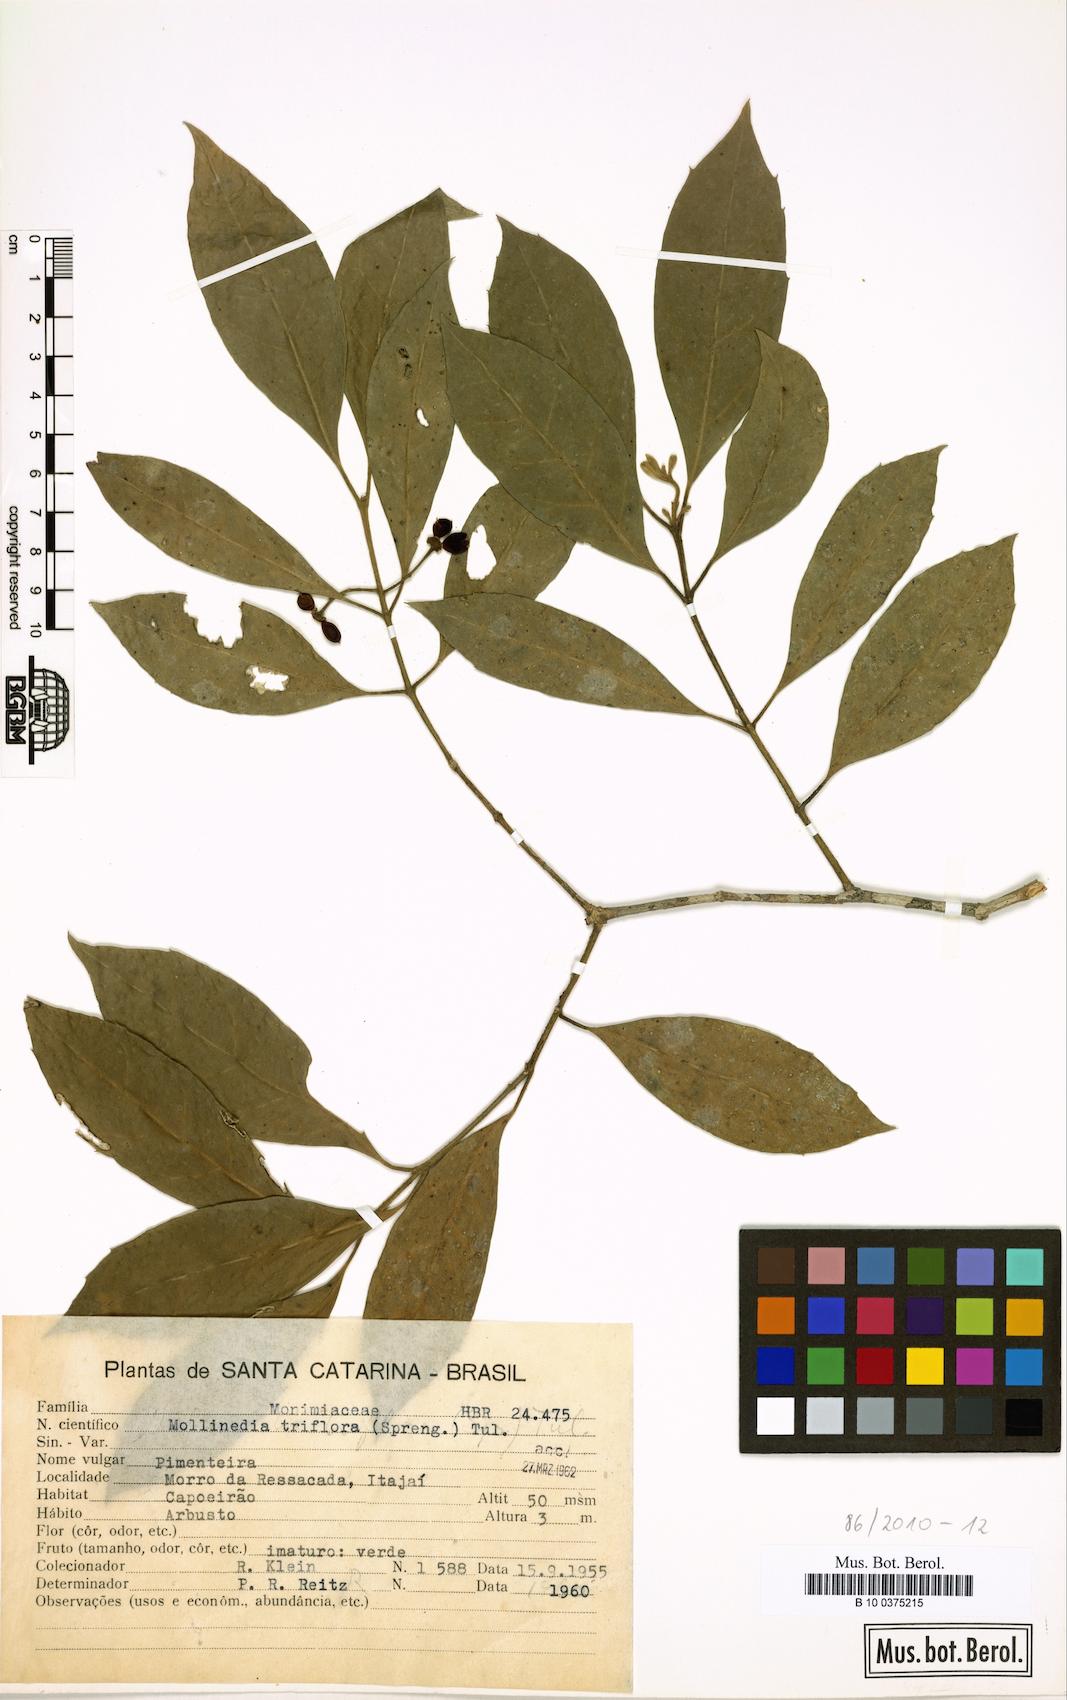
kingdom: Plantae
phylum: Tracheophyta
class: Magnoliopsida
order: Laurales
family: Monimiaceae
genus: Mollinedia
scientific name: Mollinedia triflora
